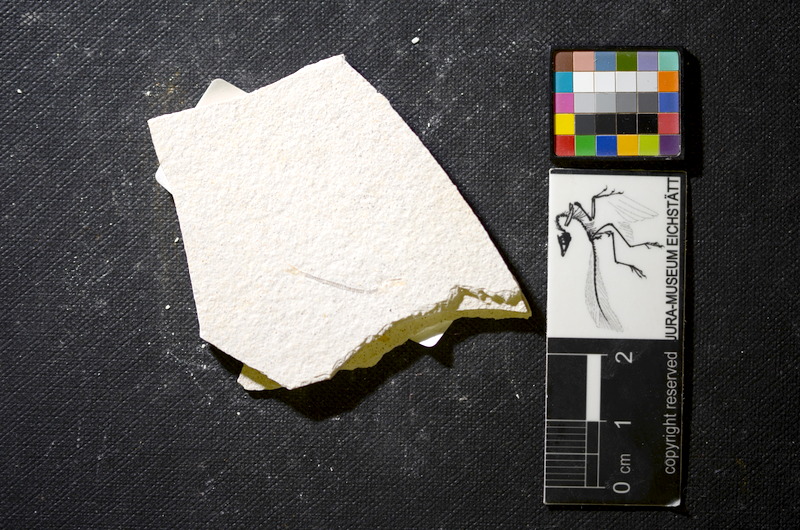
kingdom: Animalia
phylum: Chordata
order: Salmoniformes
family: Orthogonikleithridae
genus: Orthogonikleithrus
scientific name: Orthogonikleithrus hoelli
